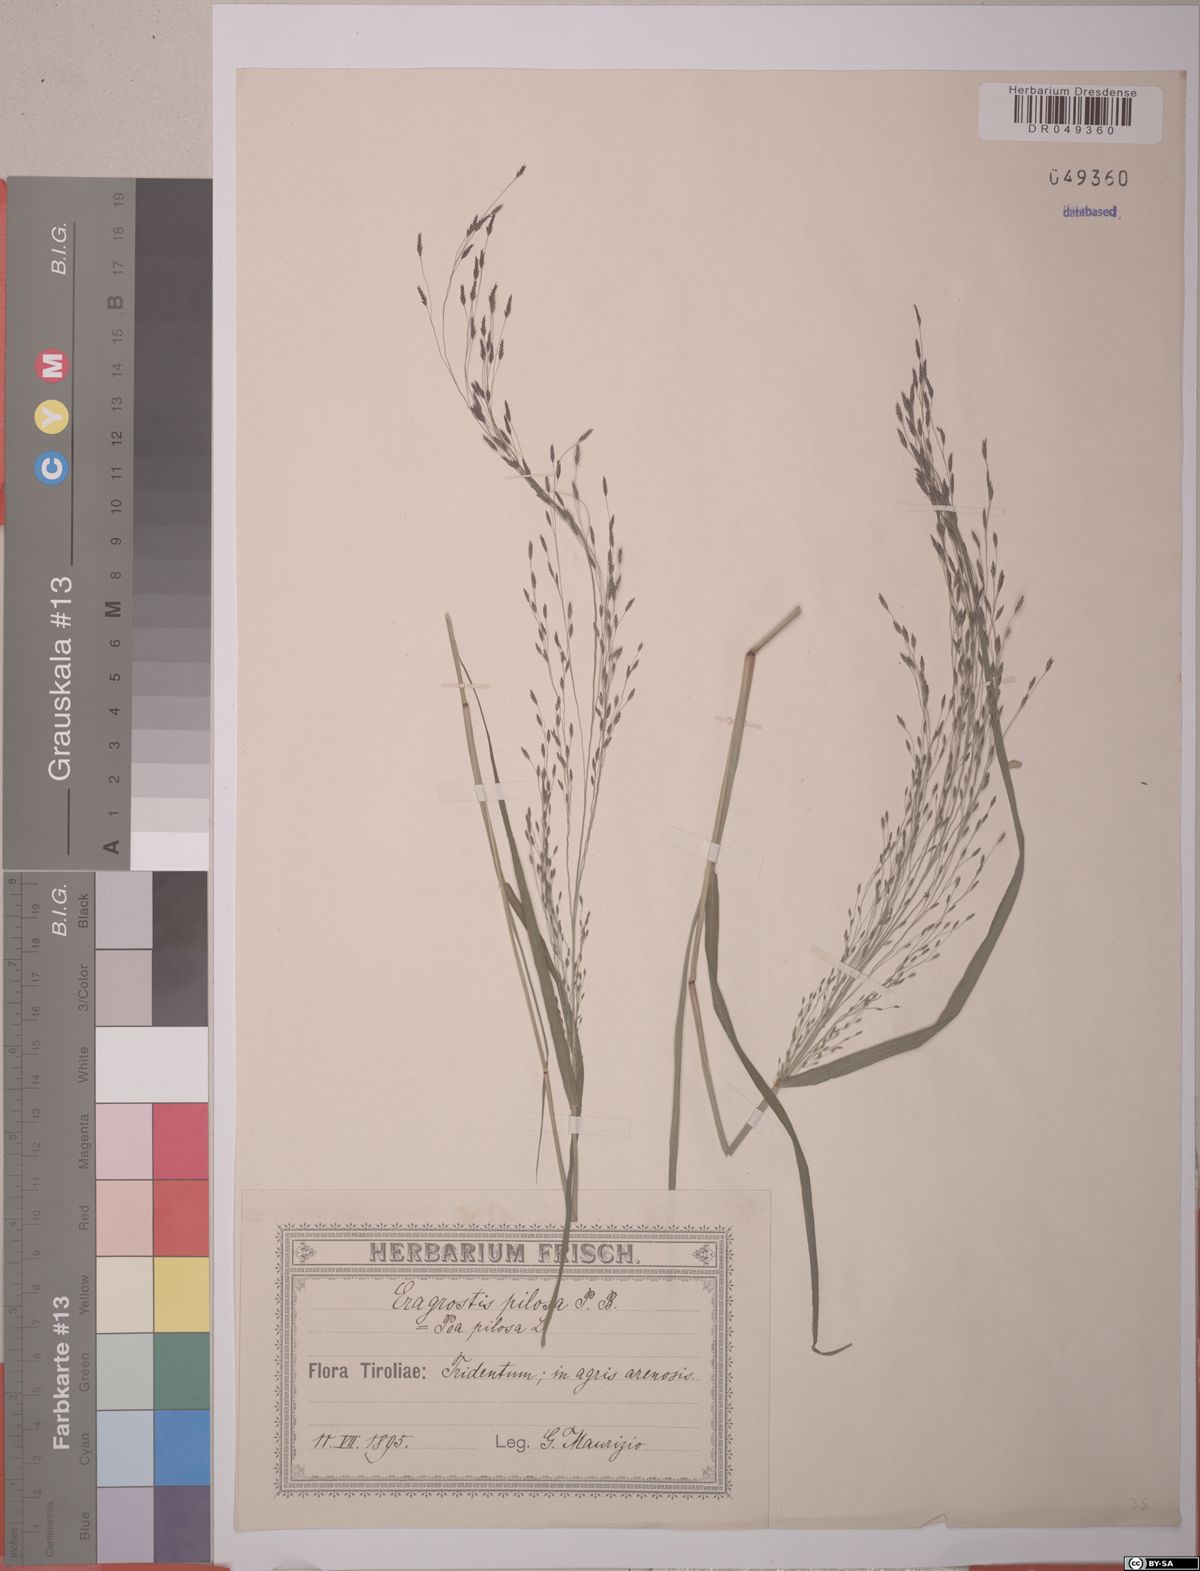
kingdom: Plantae
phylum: Tracheophyta
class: Liliopsida
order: Poales
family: Poaceae
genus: Eragrostis
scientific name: Eragrostis pilosa
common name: Indian lovegrass
